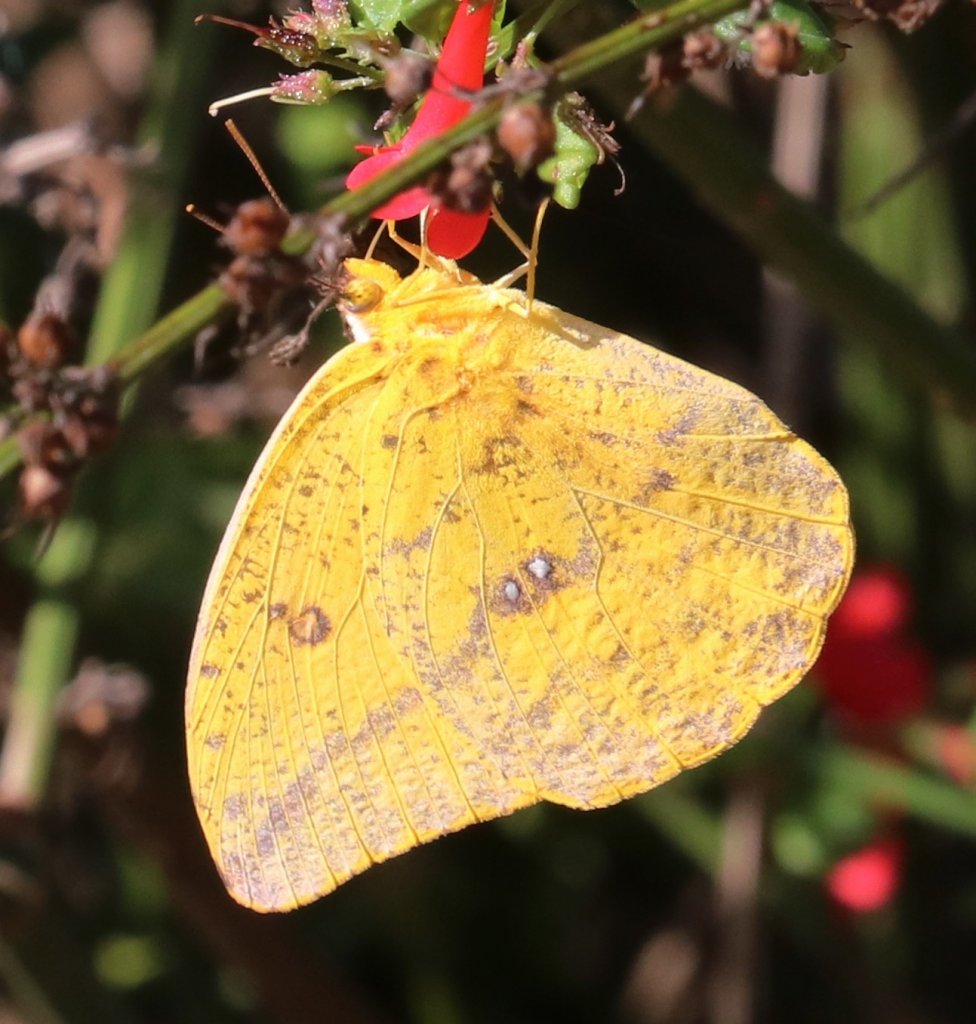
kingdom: Animalia
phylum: Arthropoda
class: Insecta
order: Lepidoptera
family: Pieridae
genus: Phoebis
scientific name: Phoebis agarithe
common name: Large Orange Sulphur
